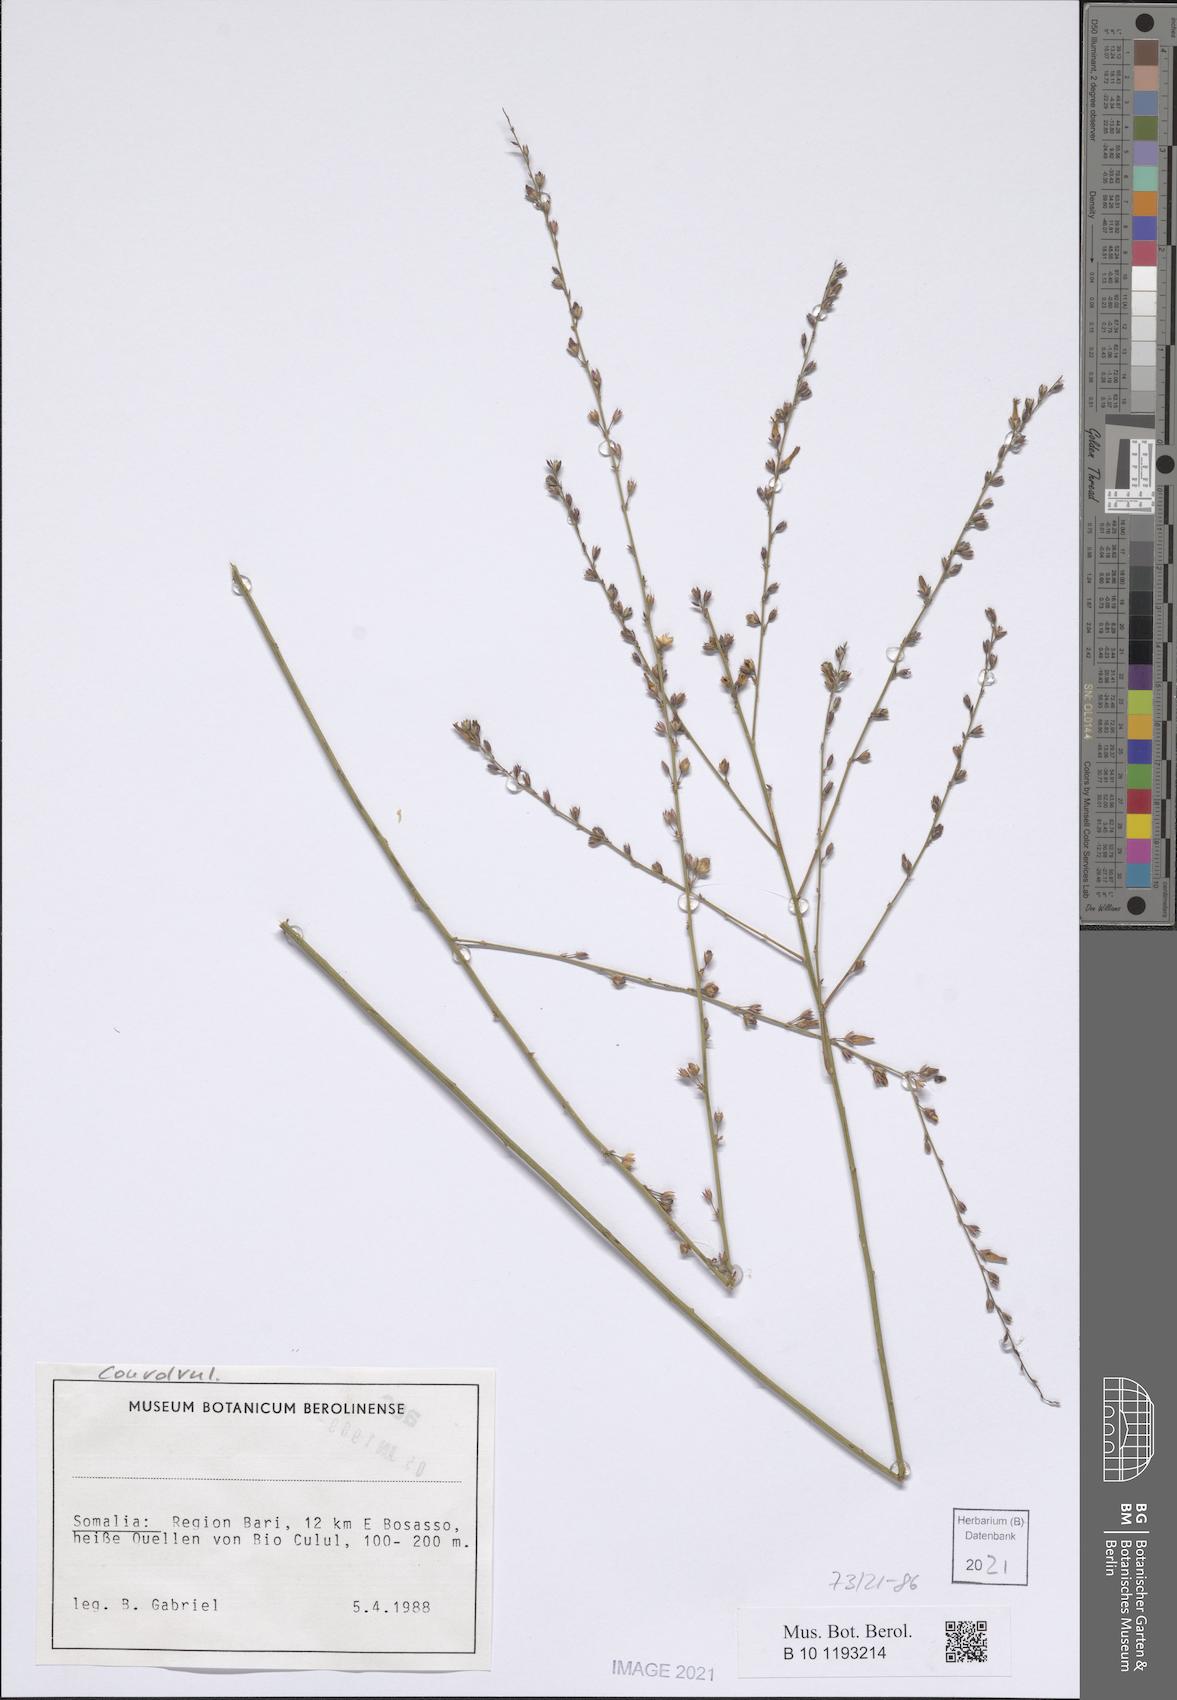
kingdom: Plantae
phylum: Tracheophyta
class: Magnoliopsida
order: Solanales
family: Convolvulaceae
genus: Convolvulus
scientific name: Convolvulus sericophyllus
